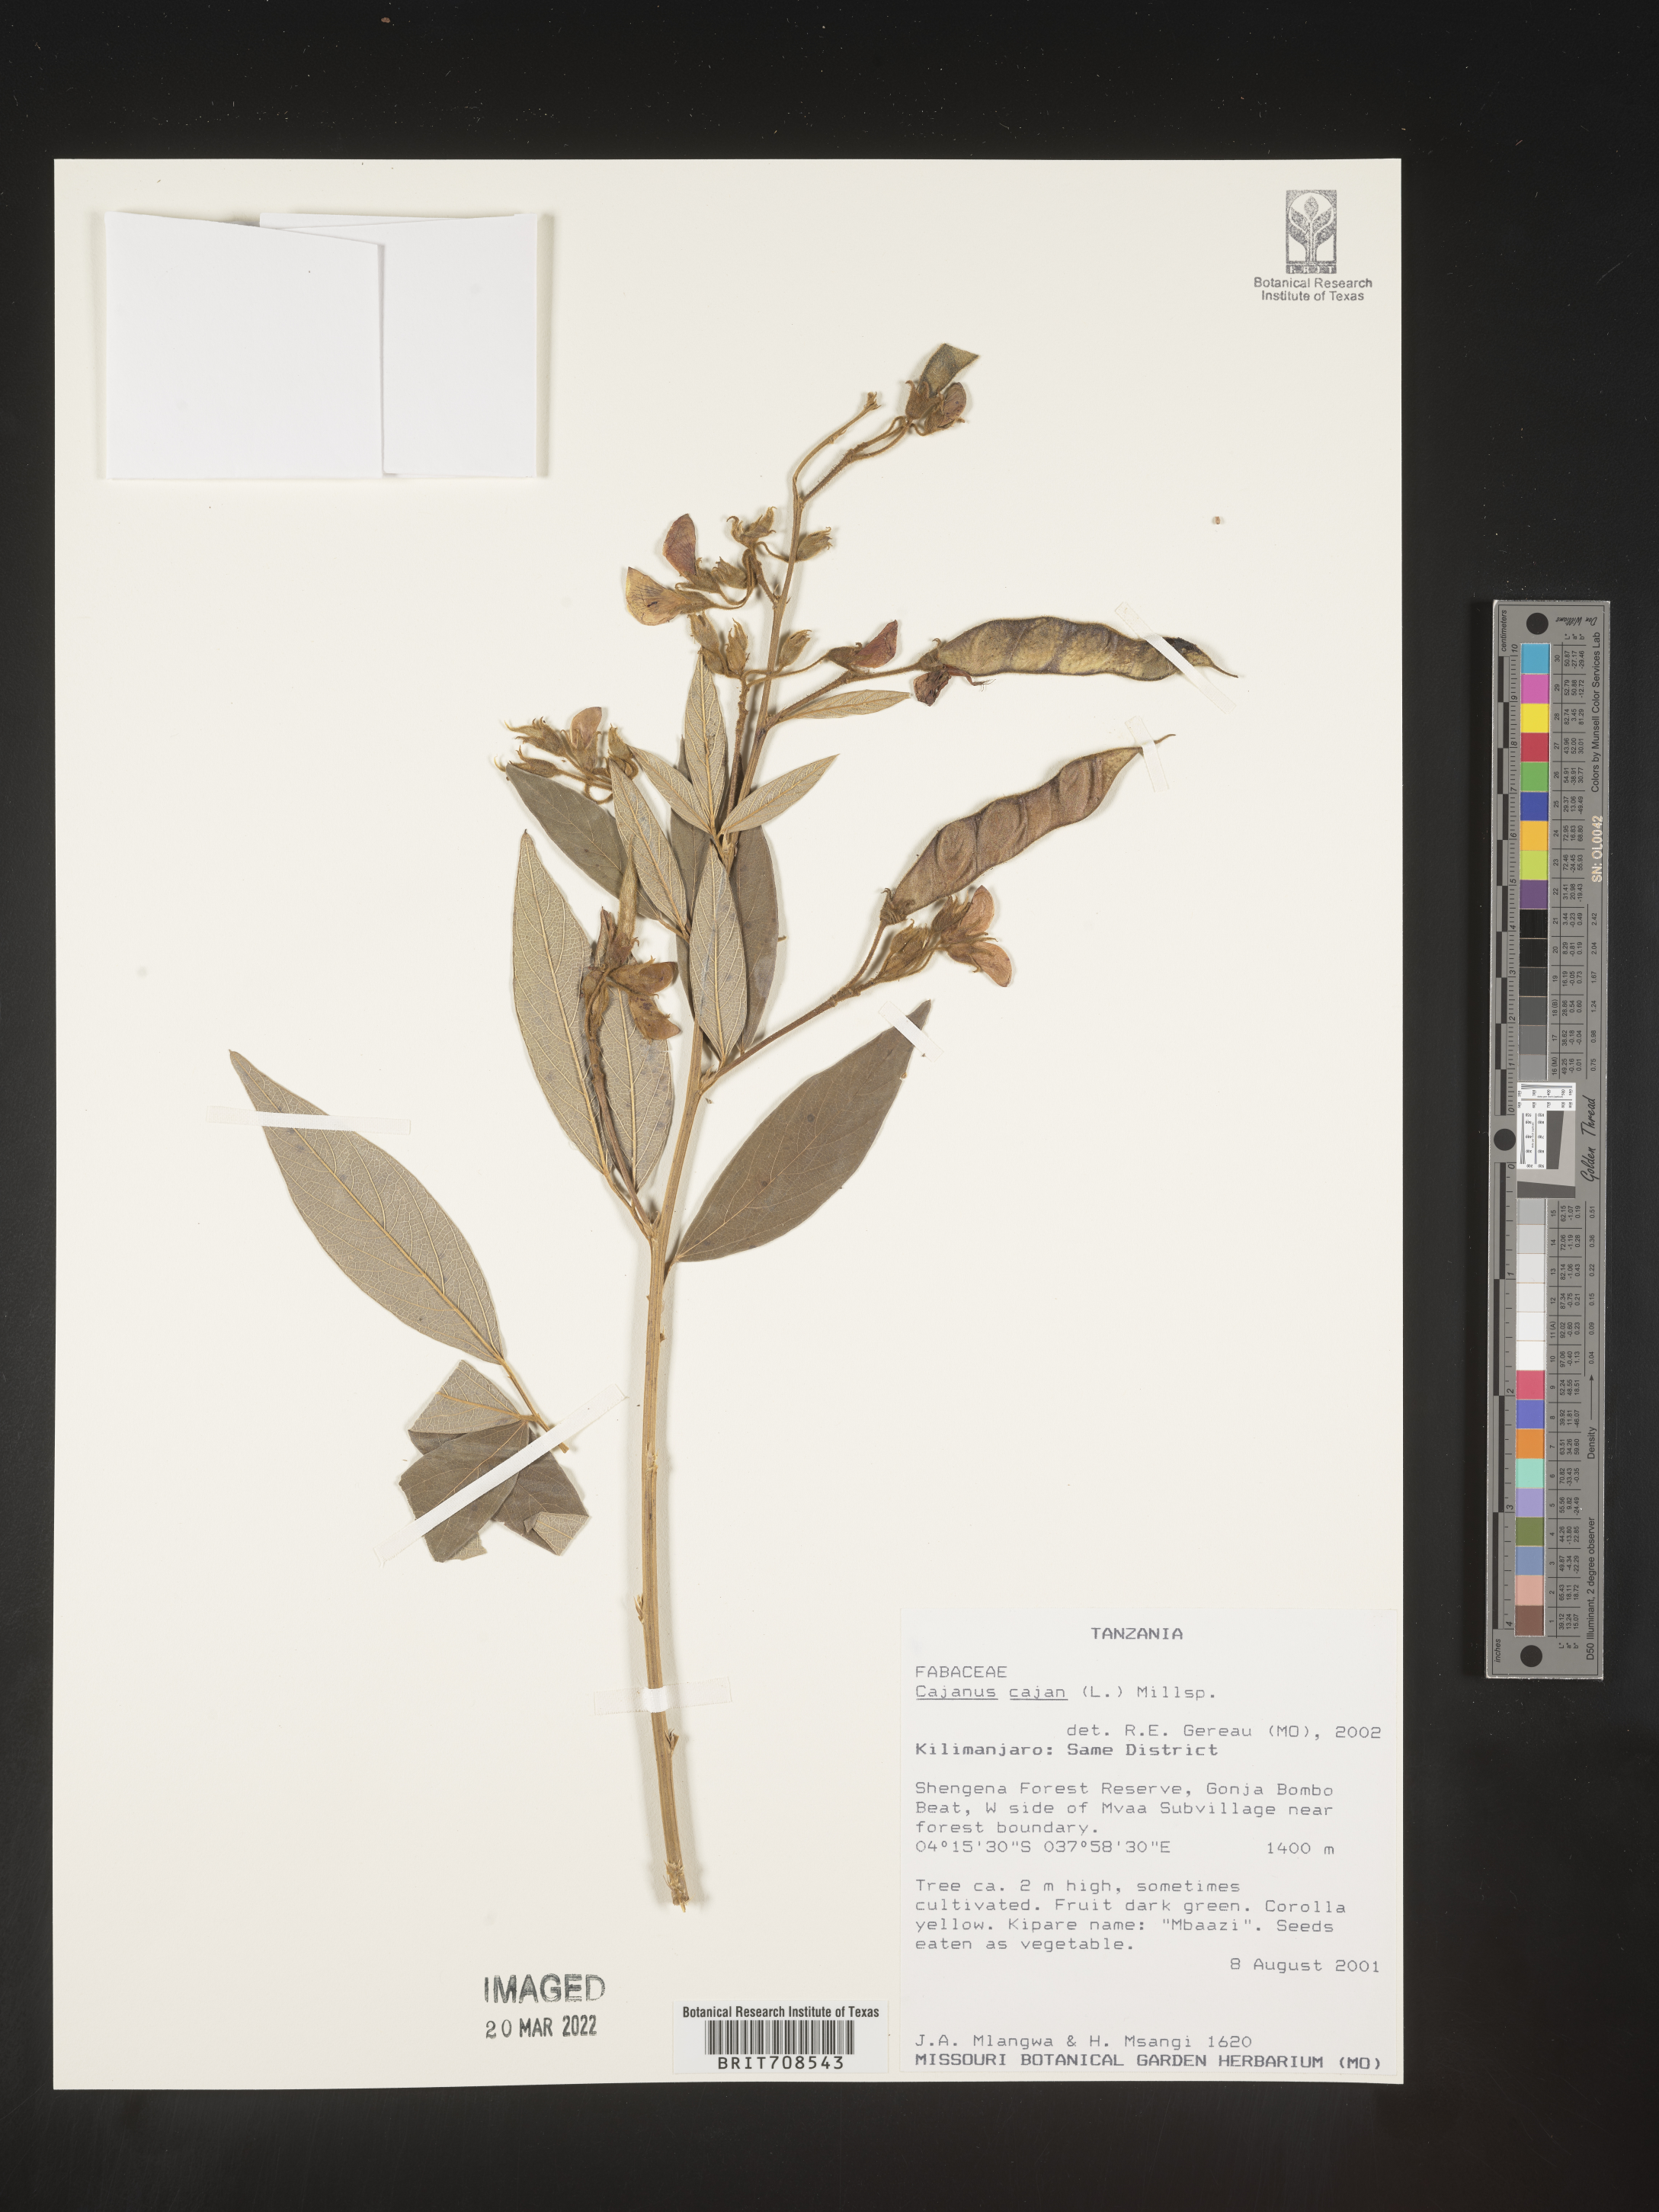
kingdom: Plantae
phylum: Tracheophyta
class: Magnoliopsida
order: Fabales
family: Fabaceae
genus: Cajanus
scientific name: Cajanus
